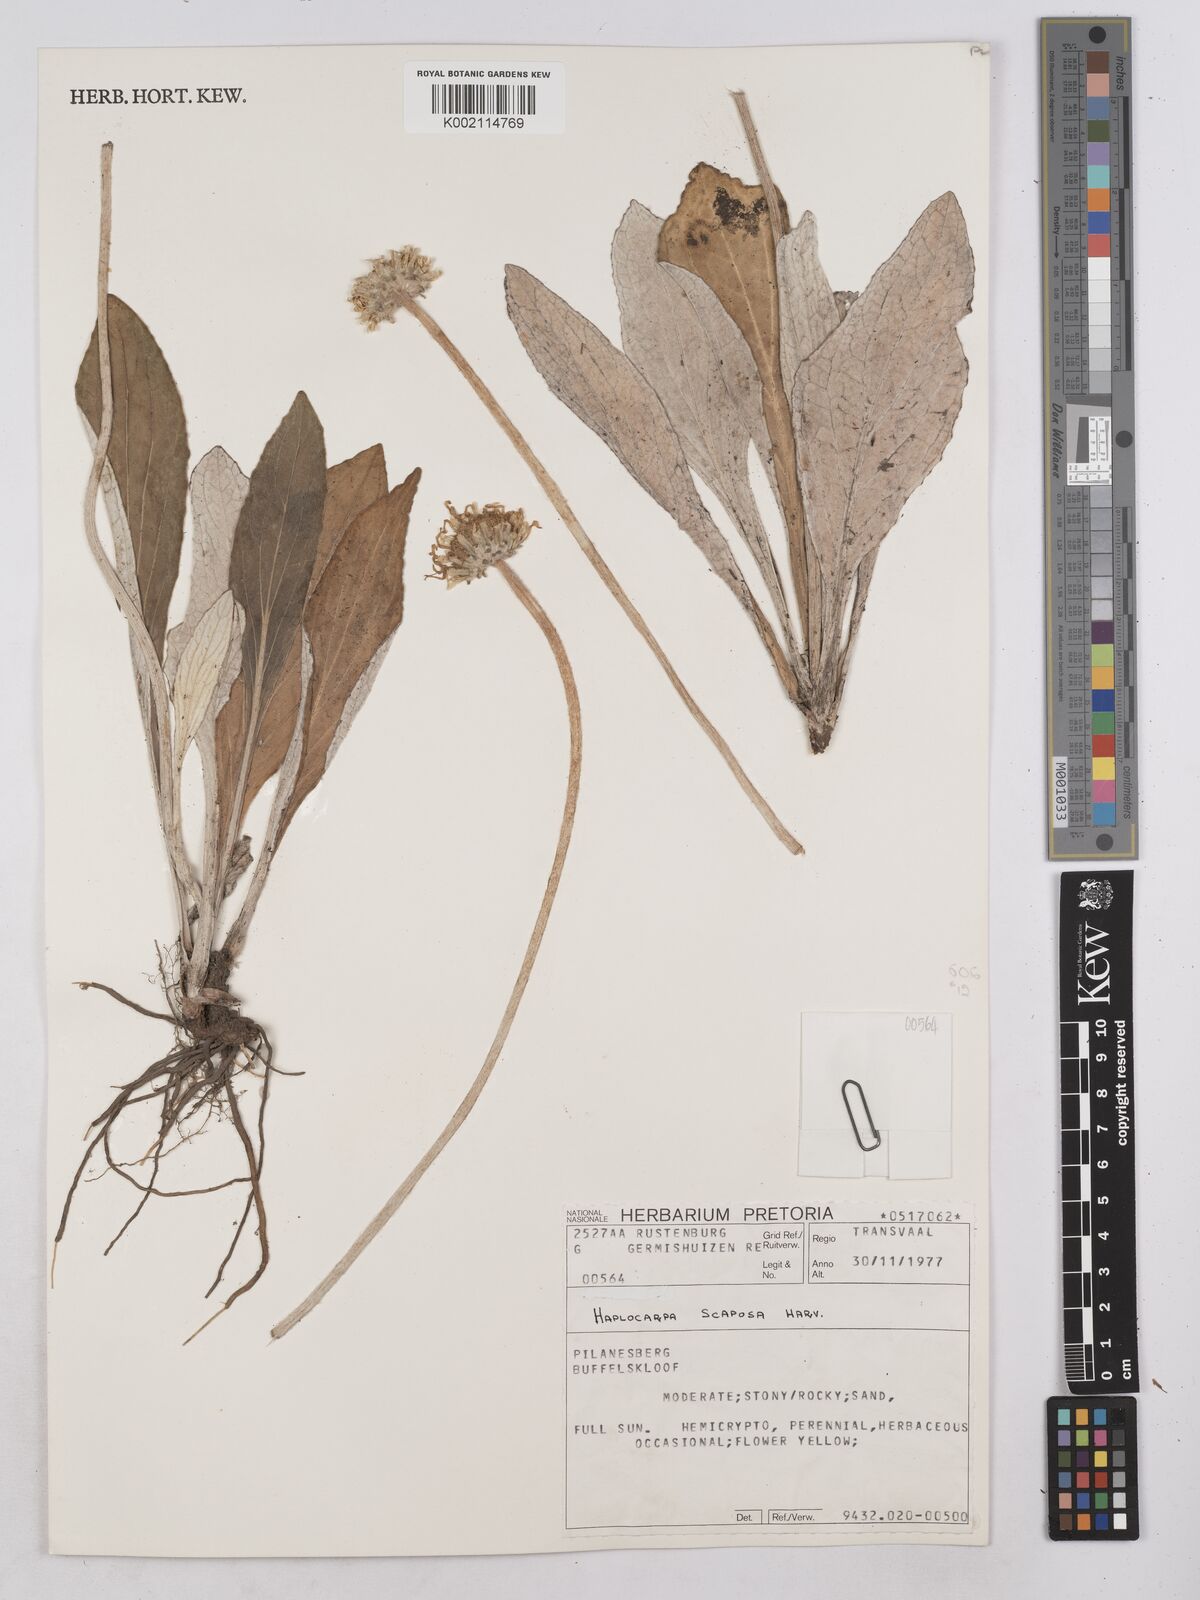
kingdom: Plantae
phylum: Tracheophyta
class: Magnoliopsida
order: Asterales
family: Asteraceae
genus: Haplocarpha
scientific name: Haplocarpha scaposa
